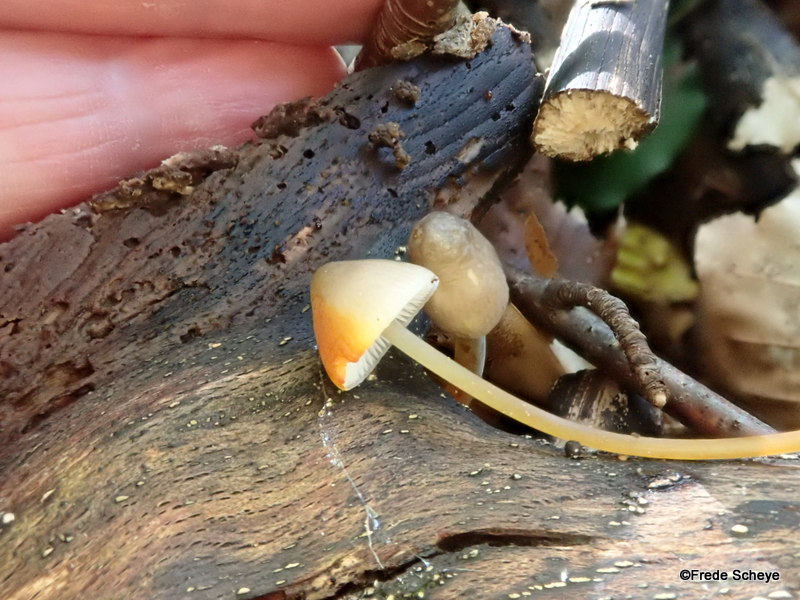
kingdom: Fungi
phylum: Basidiomycota
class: Agaricomycetes
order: Agaricales
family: Mycenaceae
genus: Mycena
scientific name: Mycena crocata
